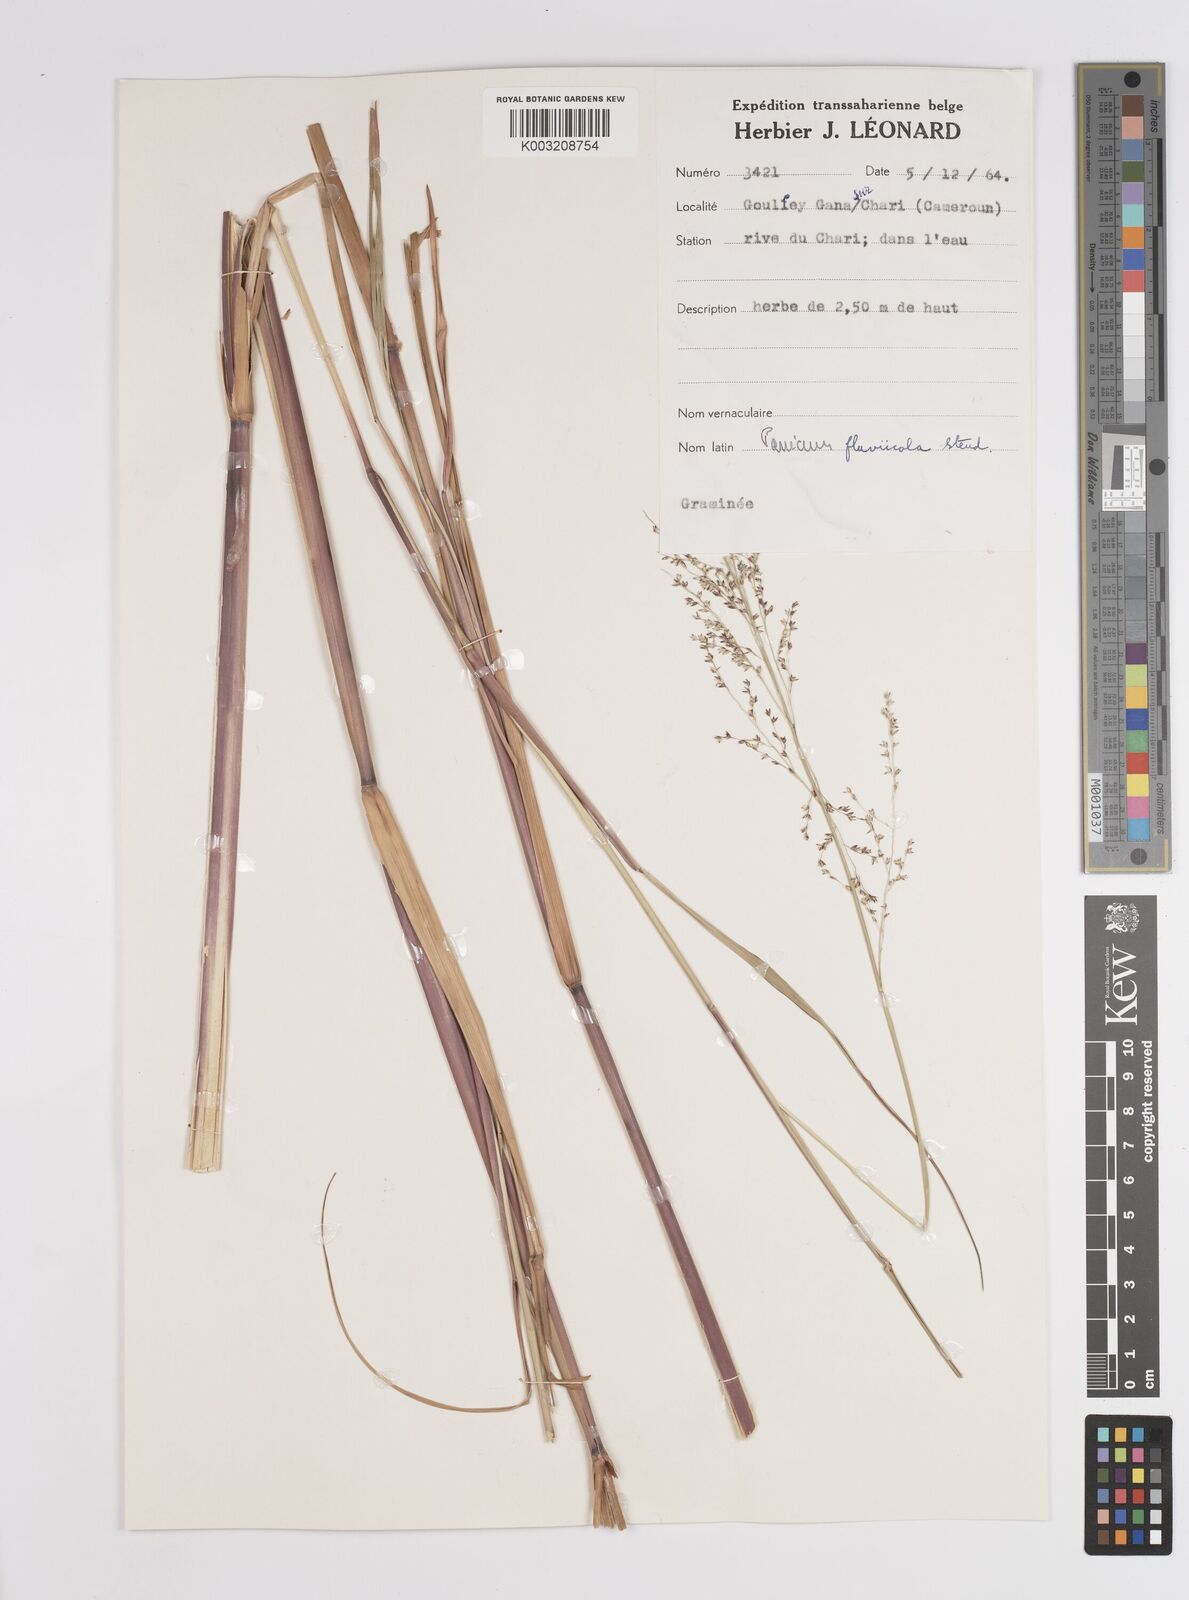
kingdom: Plantae
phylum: Tracheophyta
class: Liliopsida
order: Poales
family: Poaceae
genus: Panicum
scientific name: Panicum fluviicola
